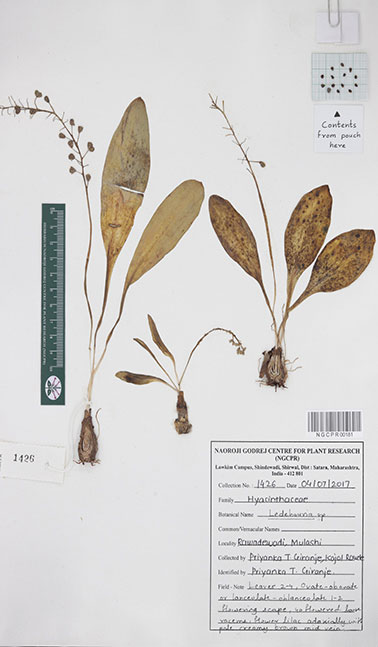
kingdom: Plantae
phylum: Tracheophyta
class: Liliopsida
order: Asparagales
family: Asparagaceae
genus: Ledebouria
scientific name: Ledebouria
